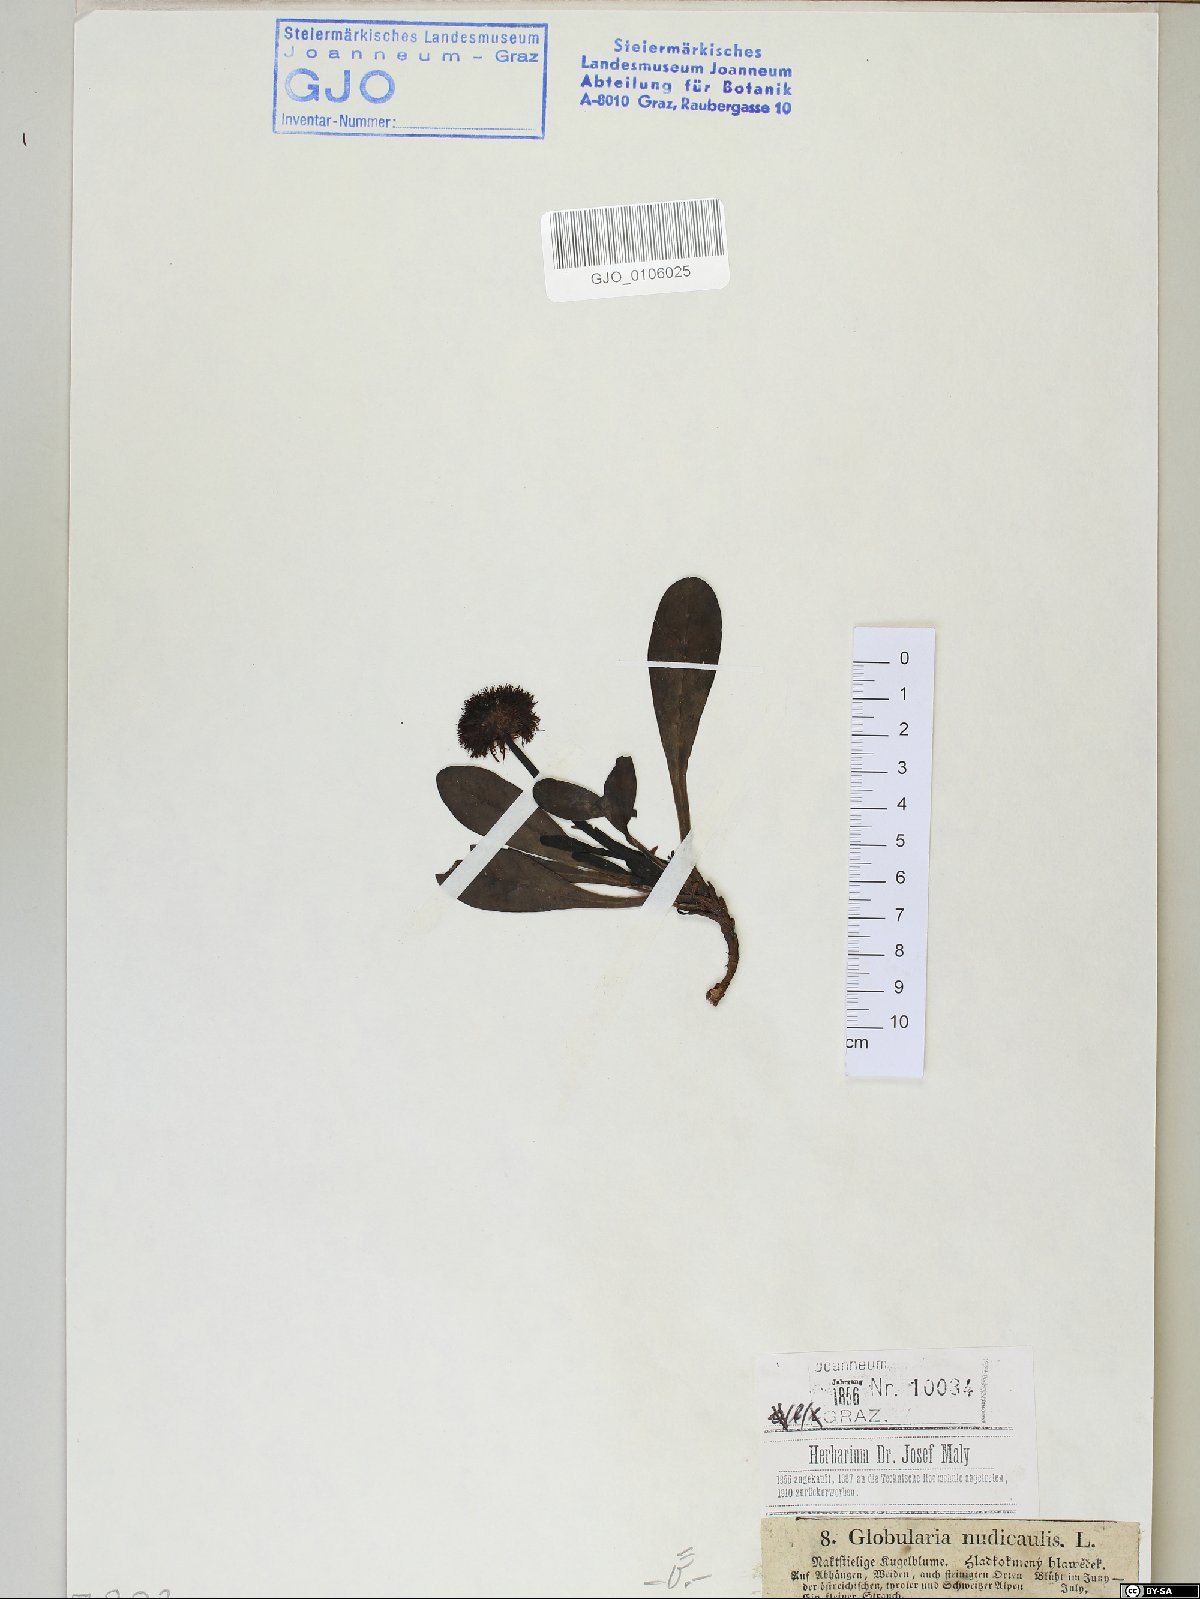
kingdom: Plantae
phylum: Tracheophyta
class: Magnoliopsida
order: Lamiales
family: Plantaginaceae
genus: Globularia
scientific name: Globularia nudicaulis
